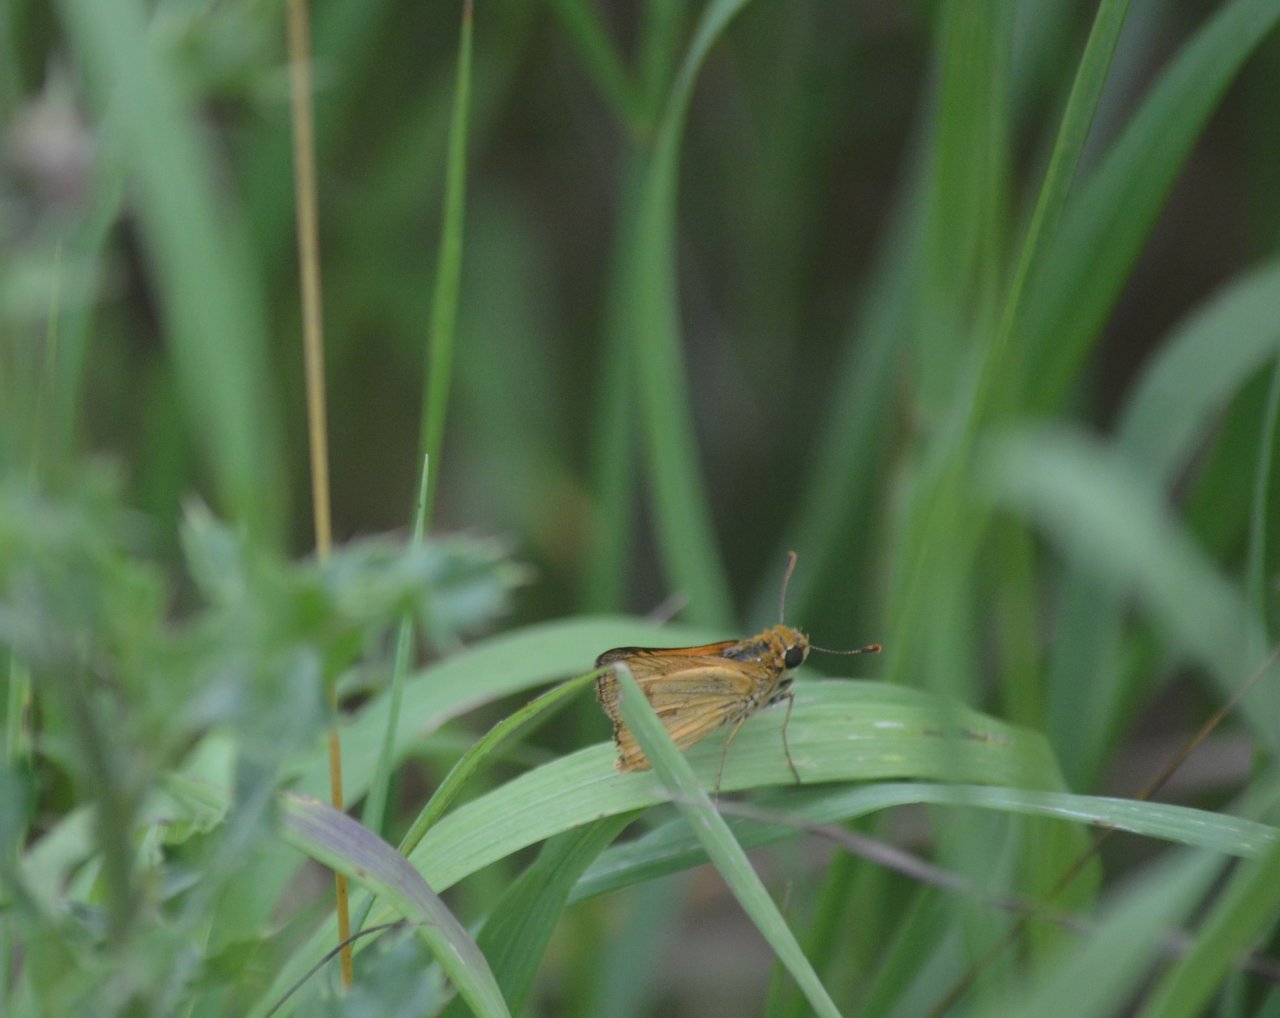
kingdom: Animalia
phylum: Arthropoda
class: Insecta
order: Lepidoptera
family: Hesperiidae
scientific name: Hesperiidae
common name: Skippers
